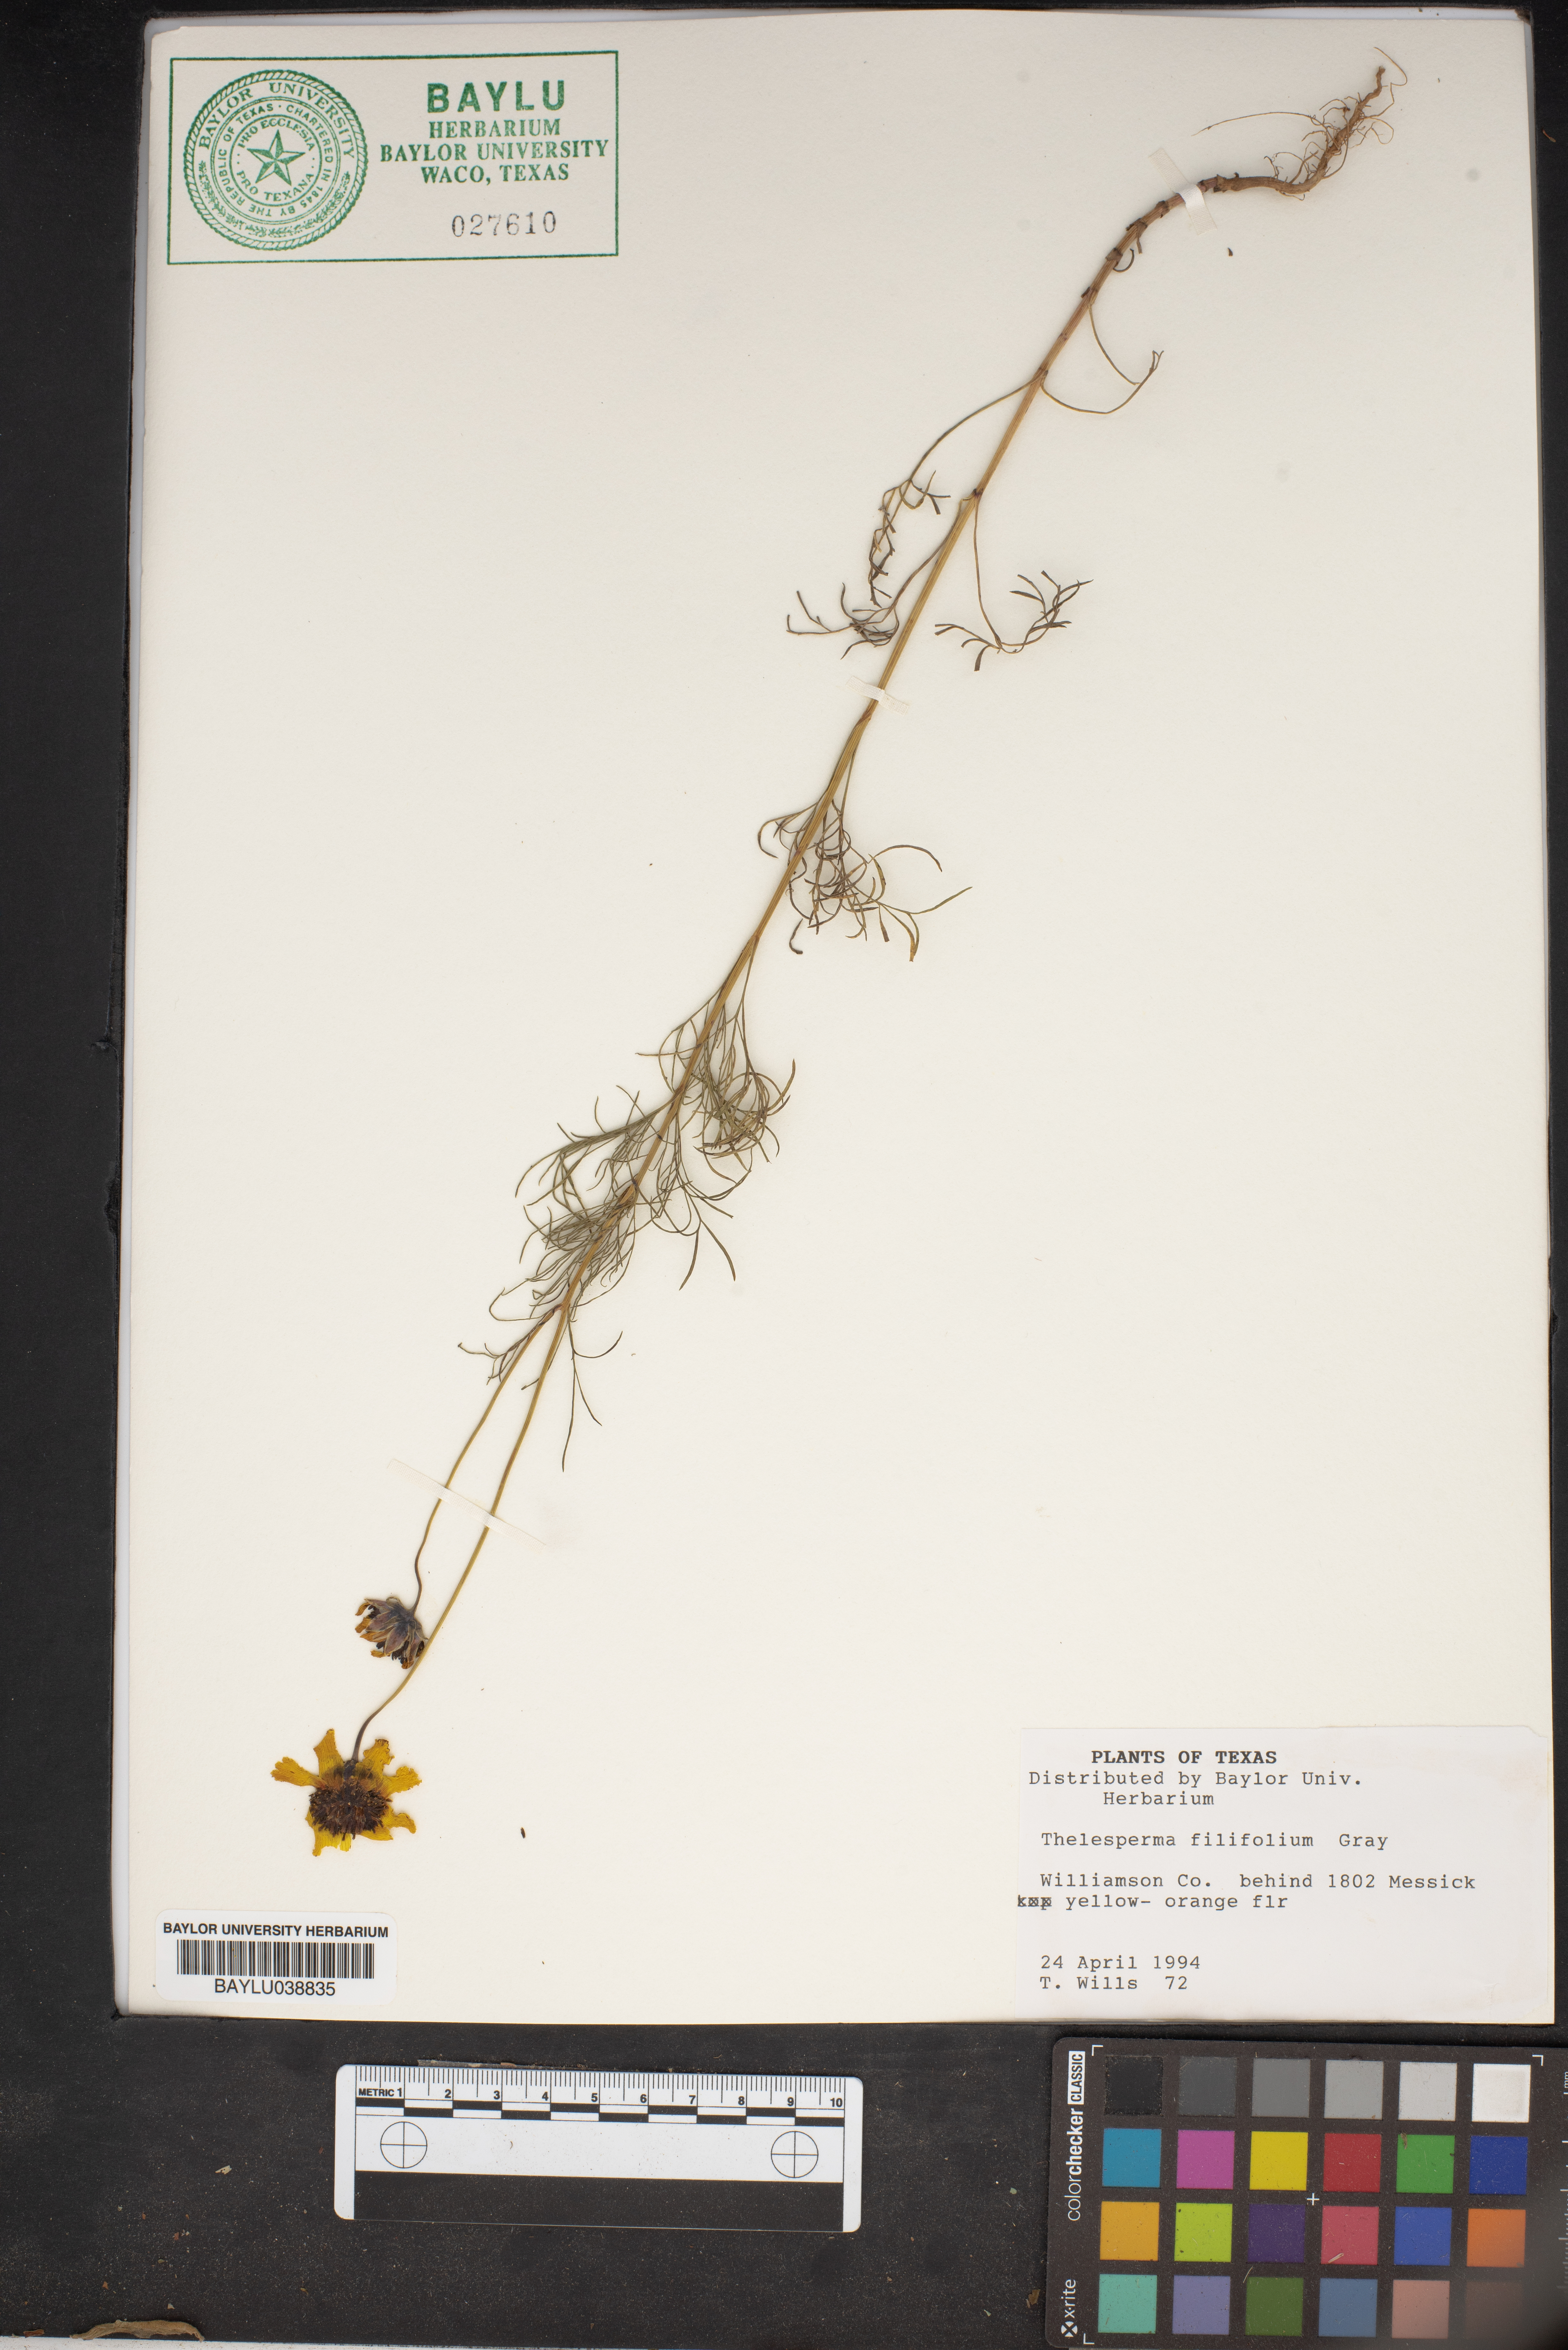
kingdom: Plantae
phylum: Tracheophyta
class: Magnoliopsida
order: Asterales
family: Asteraceae
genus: Thelesperma
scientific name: Thelesperma filifolium
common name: Stiff greenthread
